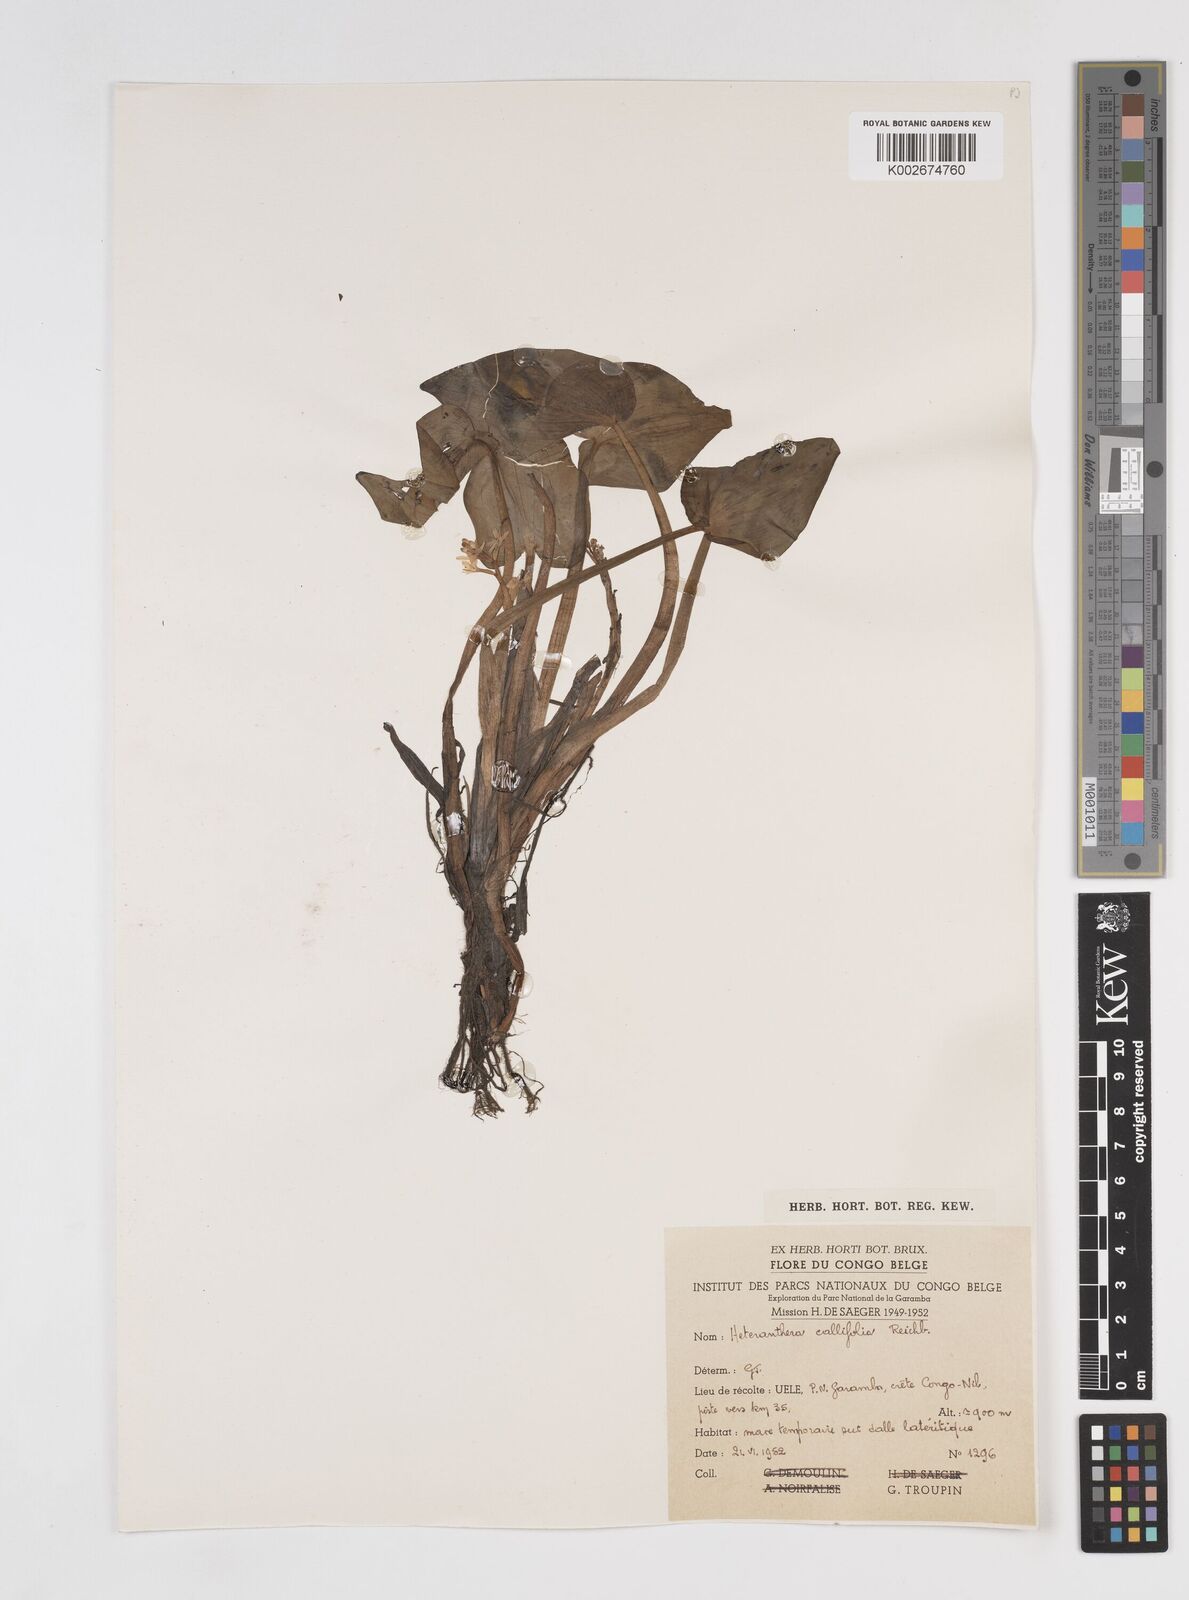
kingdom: Plantae
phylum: Tracheophyta
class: Liliopsida
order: Commelinales
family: Pontederiaceae
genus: Heteranthera
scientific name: Heteranthera callifolia
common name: Mud plantain
